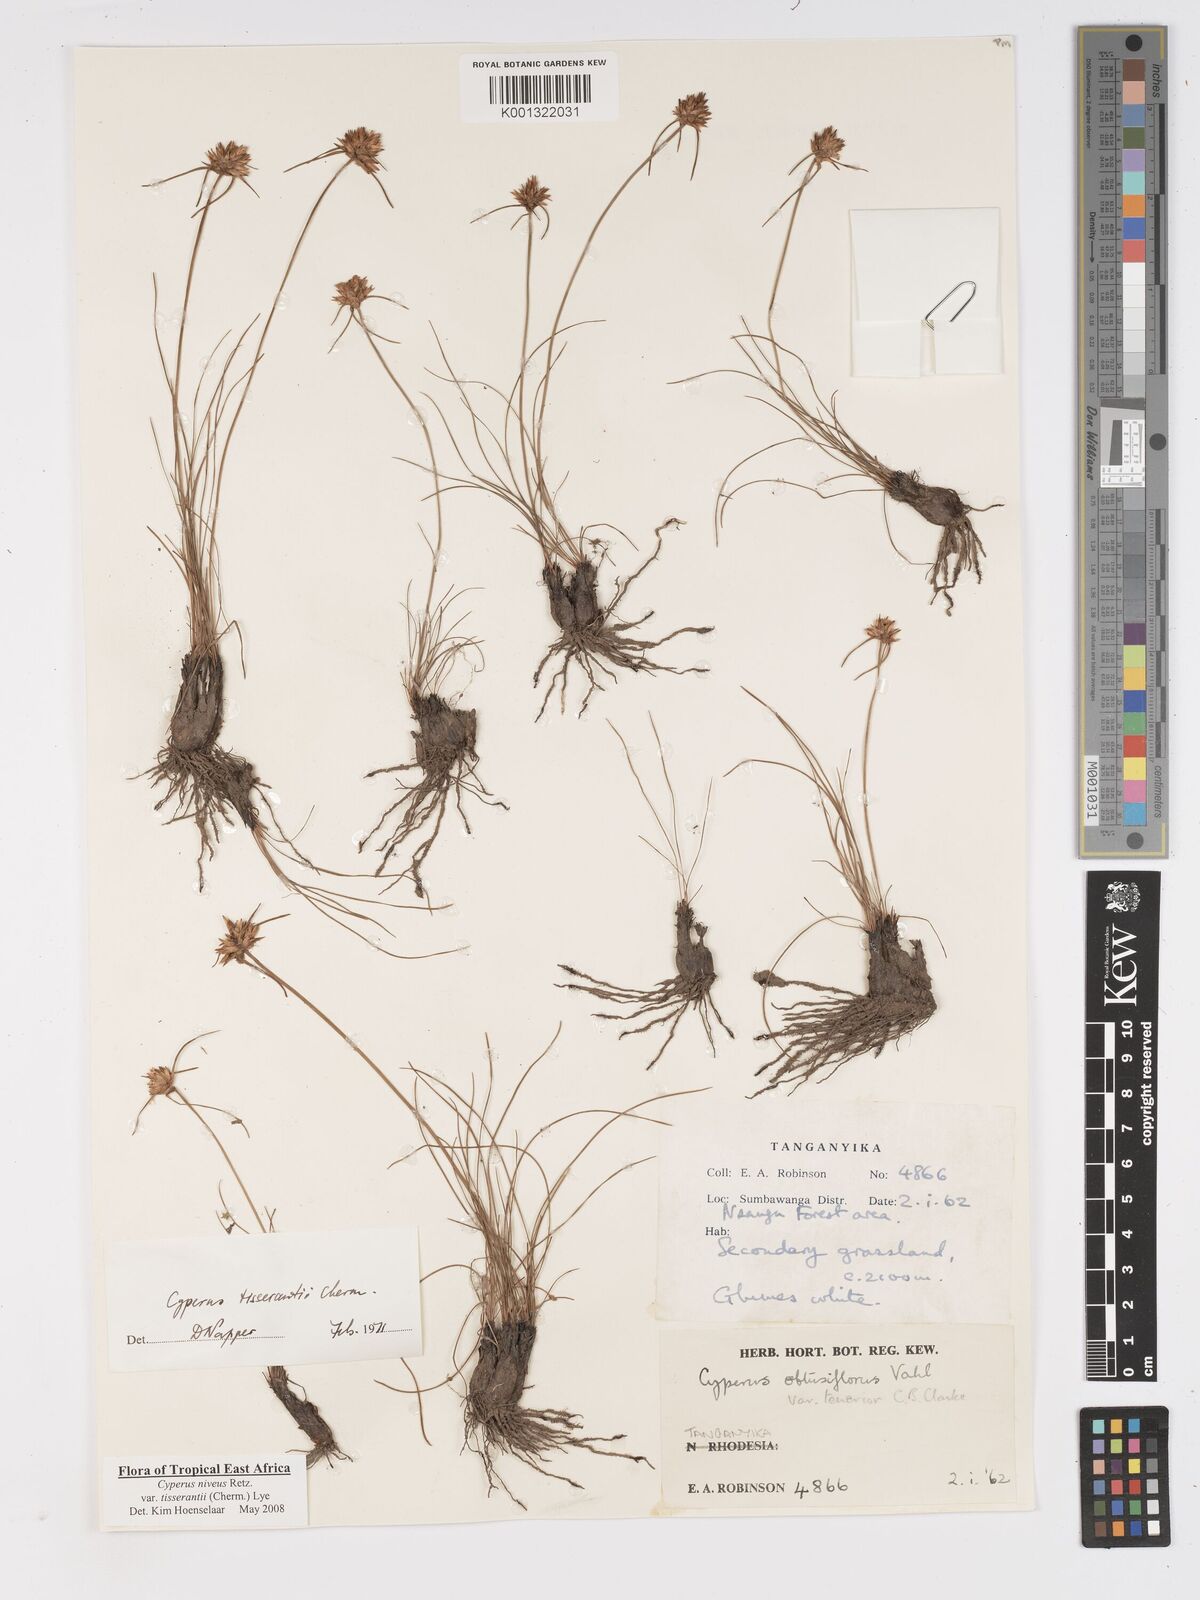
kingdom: Plantae
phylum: Tracheophyta
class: Liliopsida
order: Poales
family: Cyperaceae
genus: Cyperus
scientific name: Cyperus niveus
